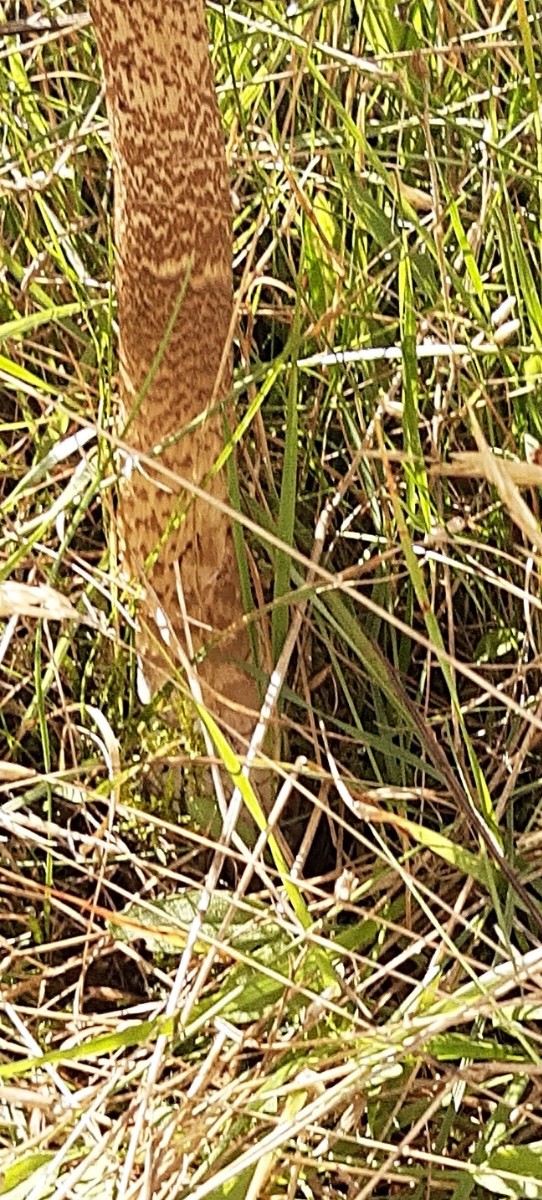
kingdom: Fungi
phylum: Basidiomycota
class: Agaricomycetes
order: Agaricales
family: Agaricaceae
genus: Macrolepiota
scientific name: Macrolepiota procera
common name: stor kæmpeparasolhat
